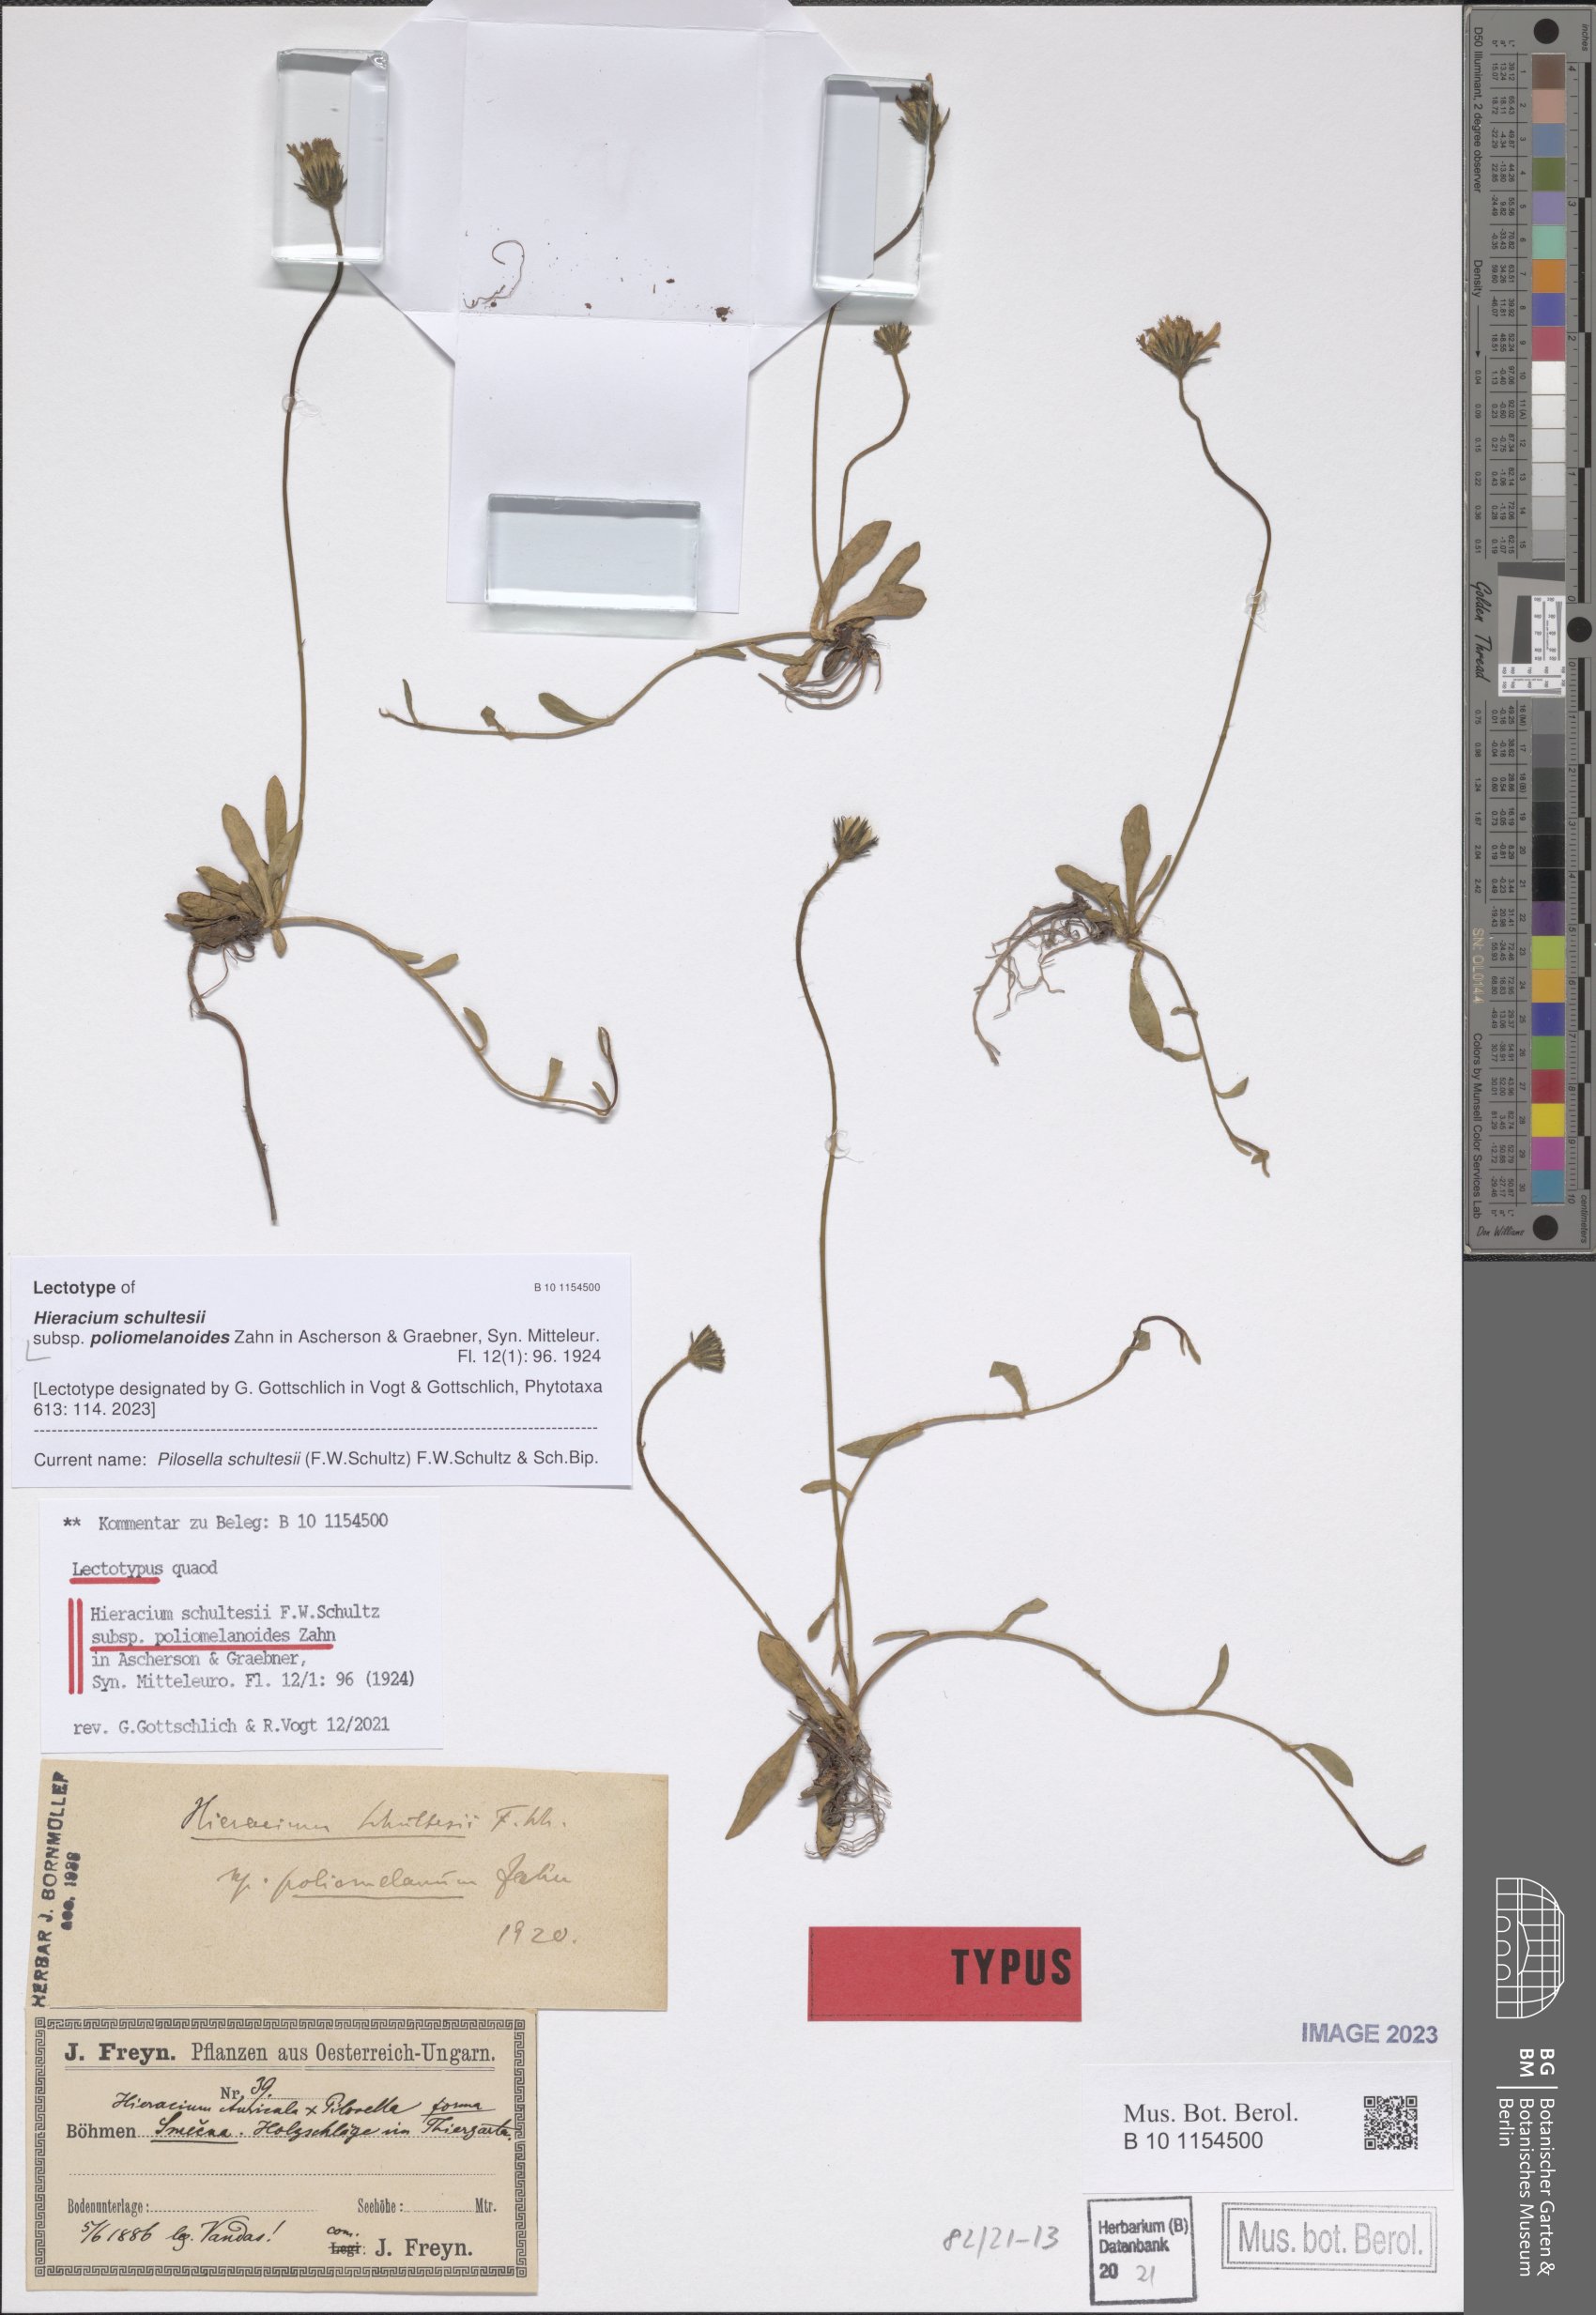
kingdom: Plantae
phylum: Tracheophyta
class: Magnoliopsida
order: Asterales
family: Asteraceae
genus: Pilosella
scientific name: Pilosella schultesii
